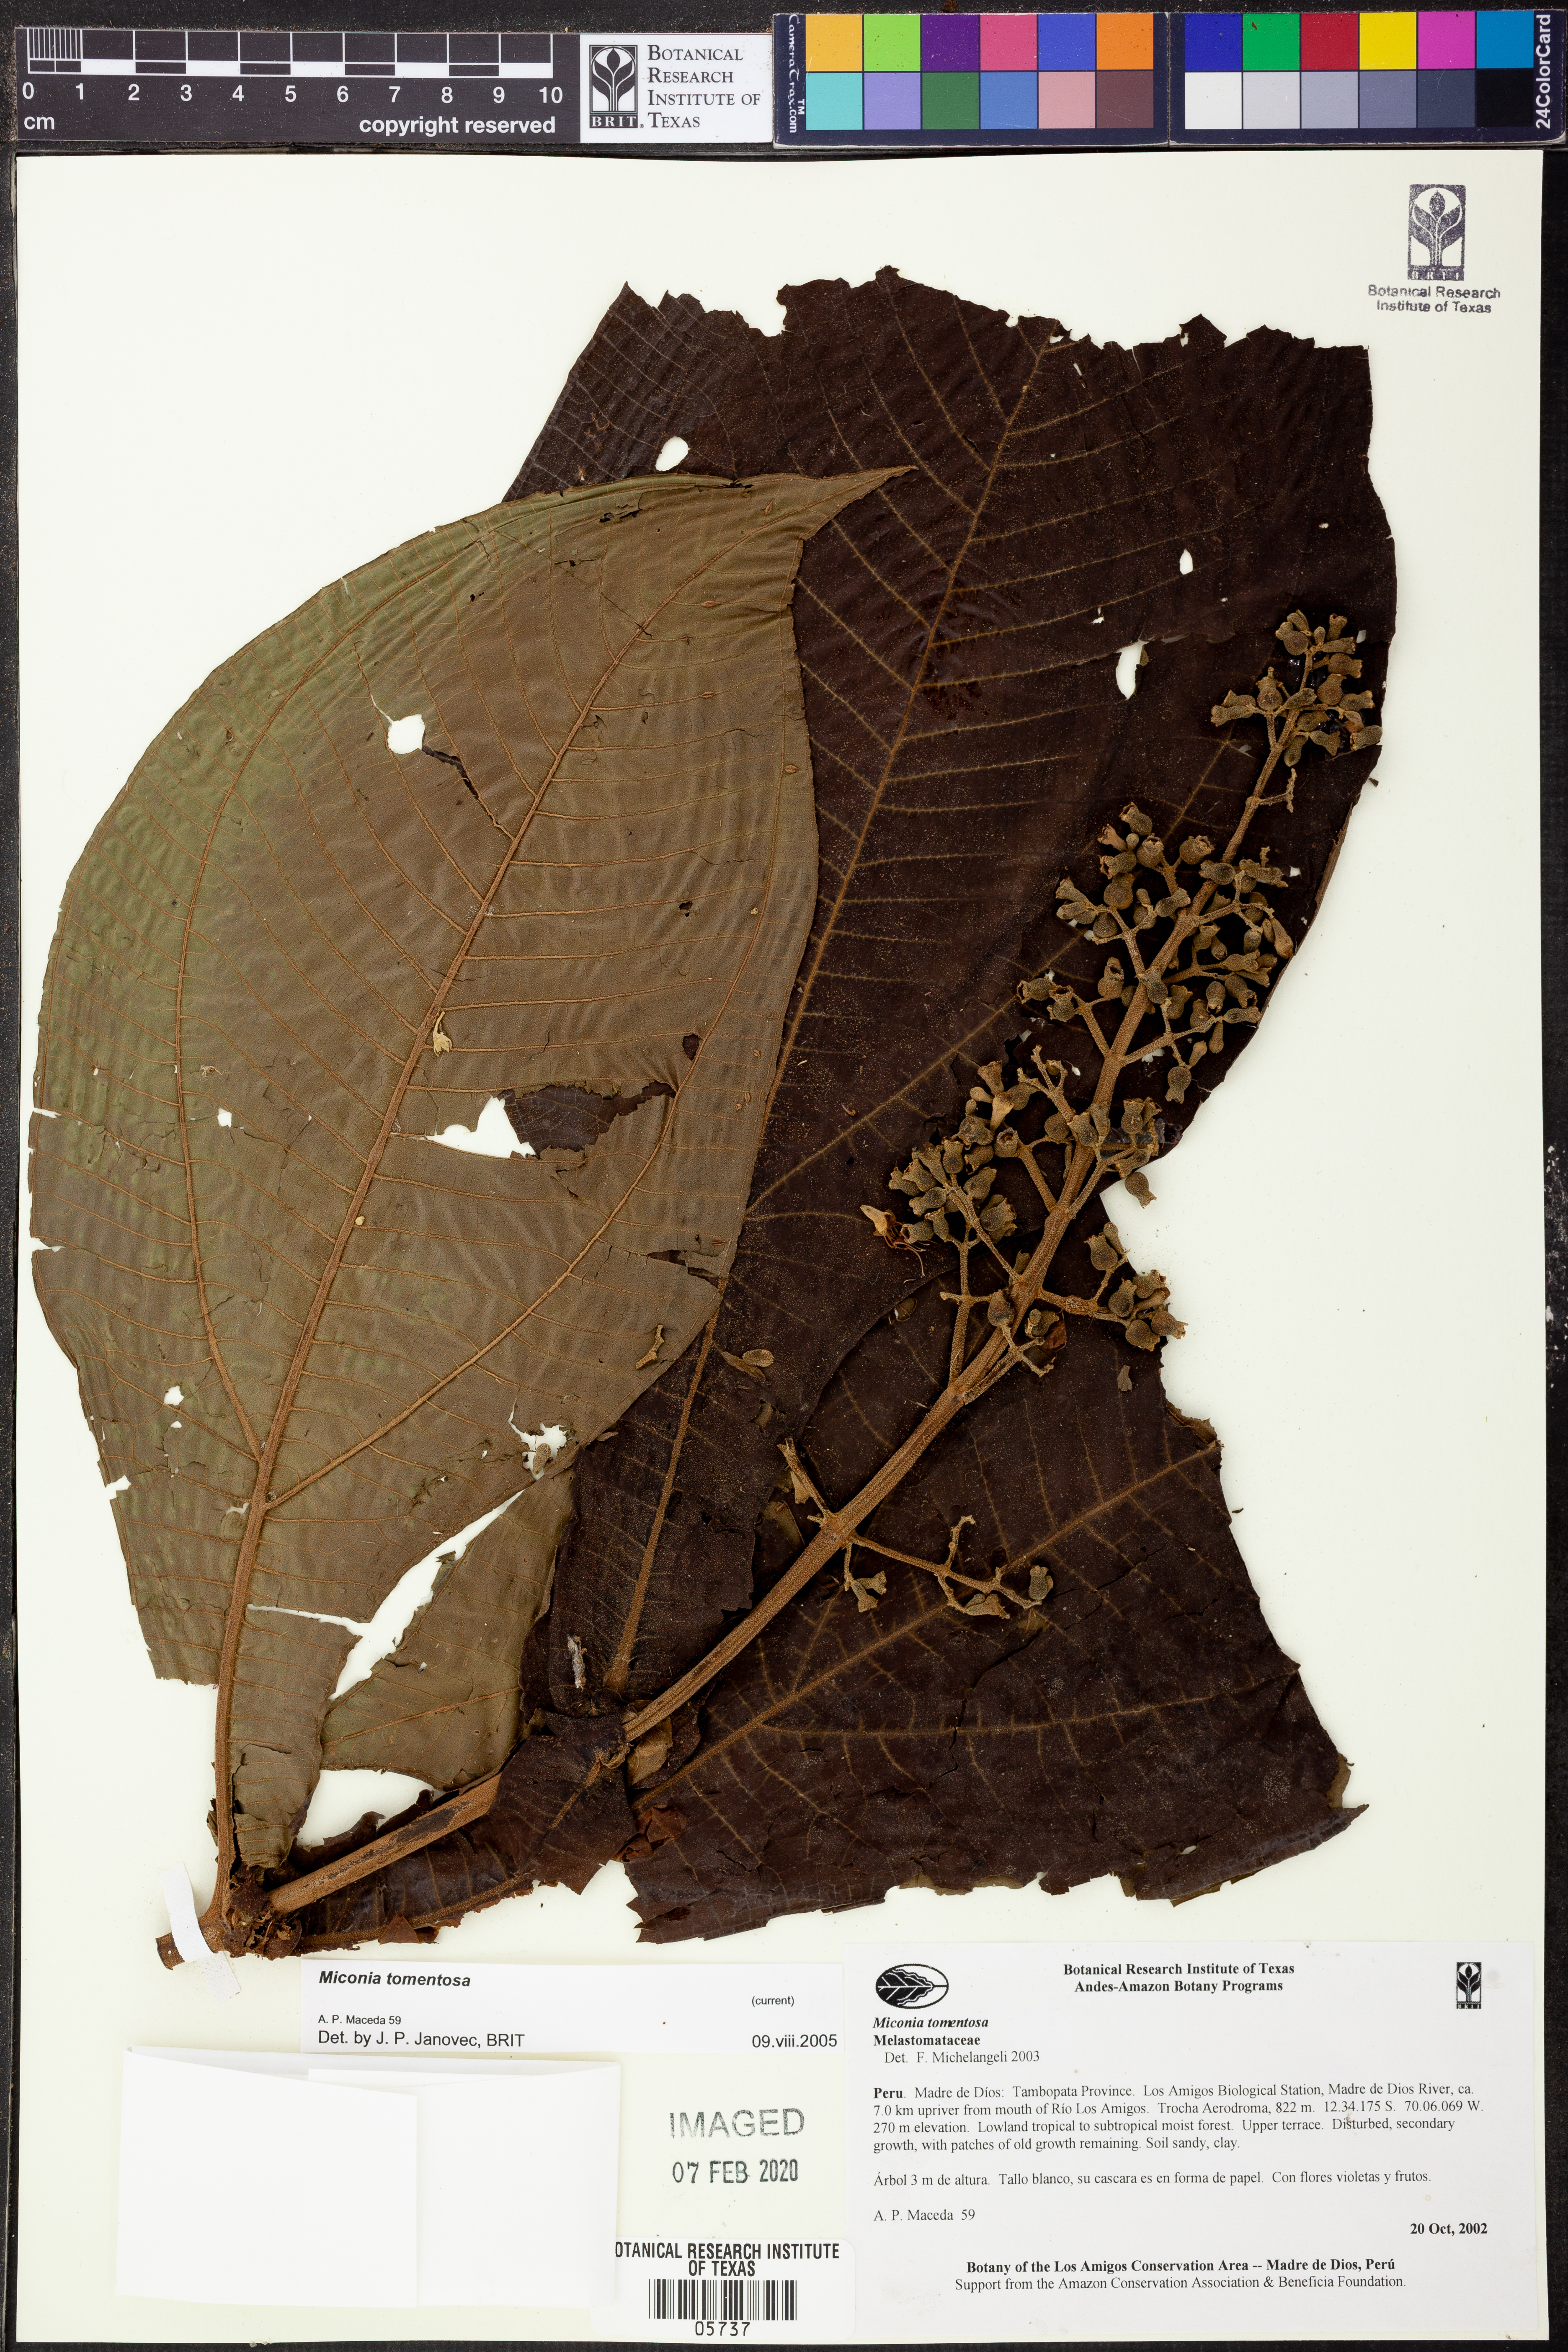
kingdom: Plantae
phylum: Tracheophyta
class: Magnoliopsida
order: Myrtales
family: Melastomataceae
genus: Miconia
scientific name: Miconia tomentosa
